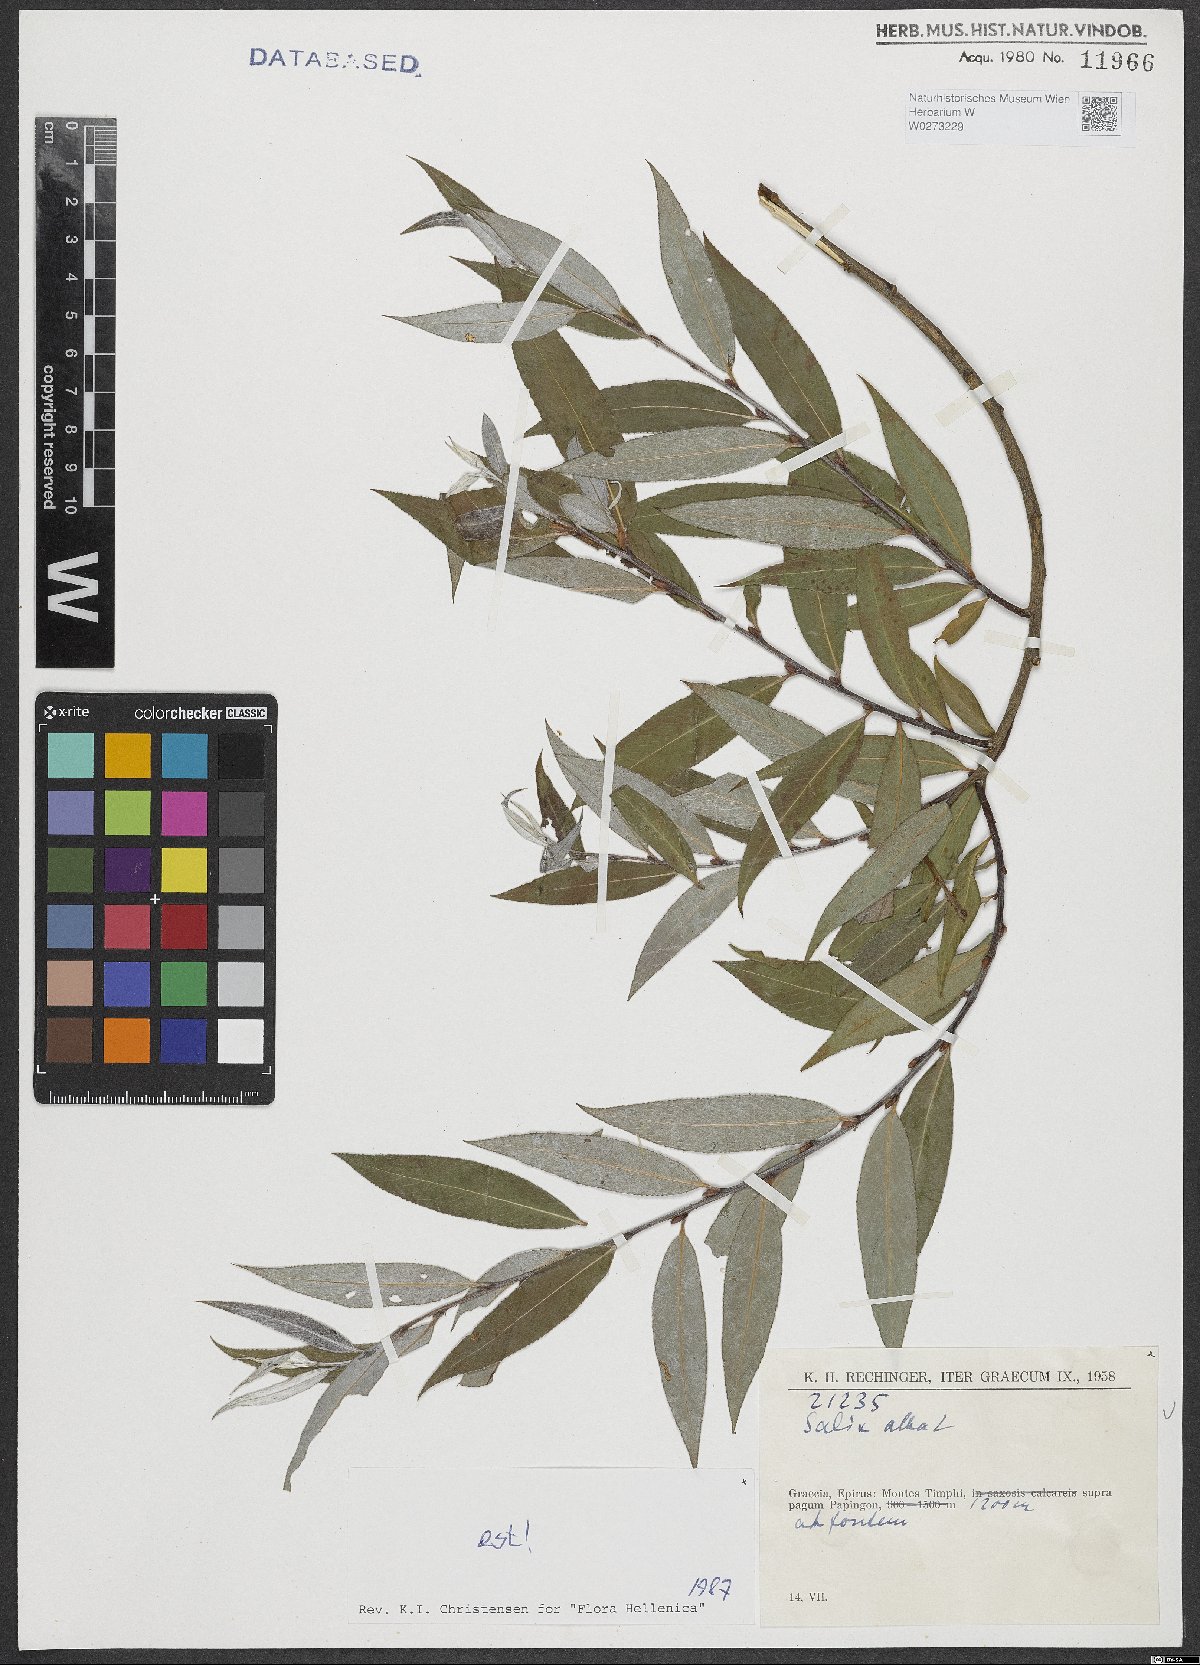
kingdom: Plantae
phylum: Tracheophyta
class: Magnoliopsida
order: Malpighiales
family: Salicaceae
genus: Salix
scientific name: Salix alba
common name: White willow
